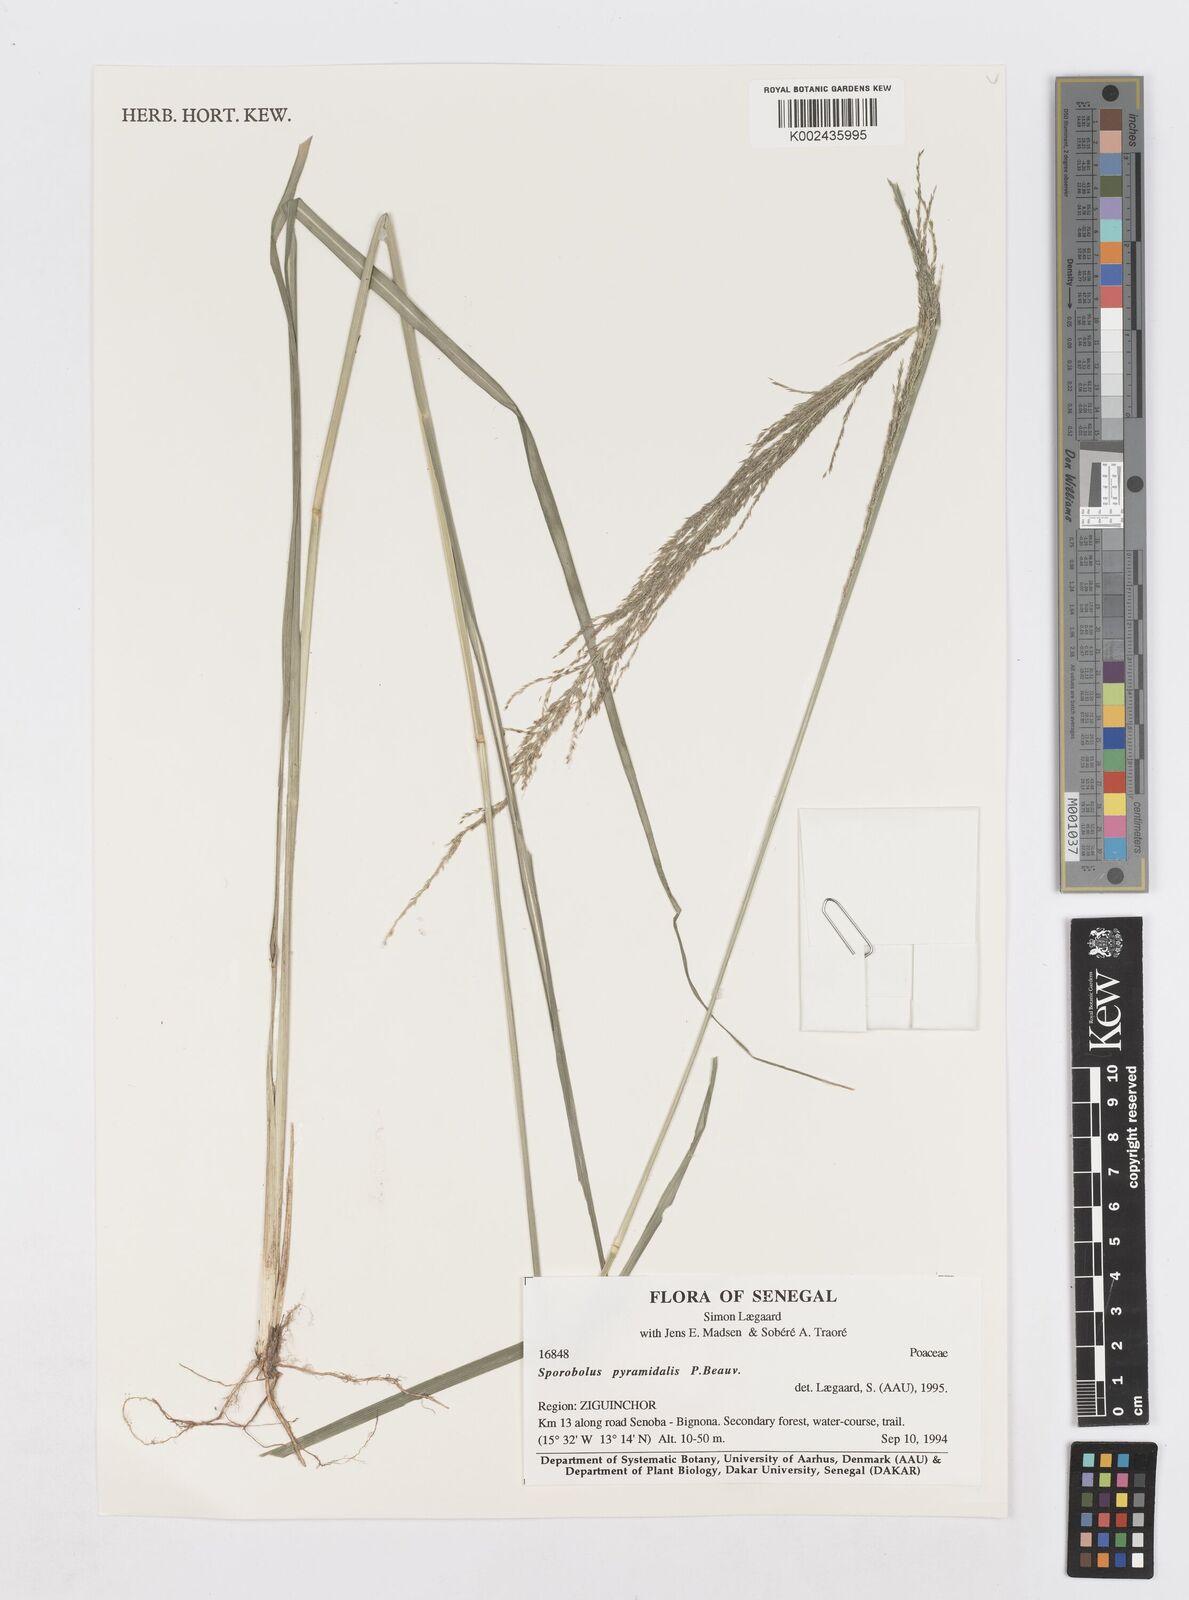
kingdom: Plantae
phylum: Tracheophyta
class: Liliopsida
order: Poales
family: Poaceae
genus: Sporobolus
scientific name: Sporobolus pyramidalis
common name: West indian dropseed
